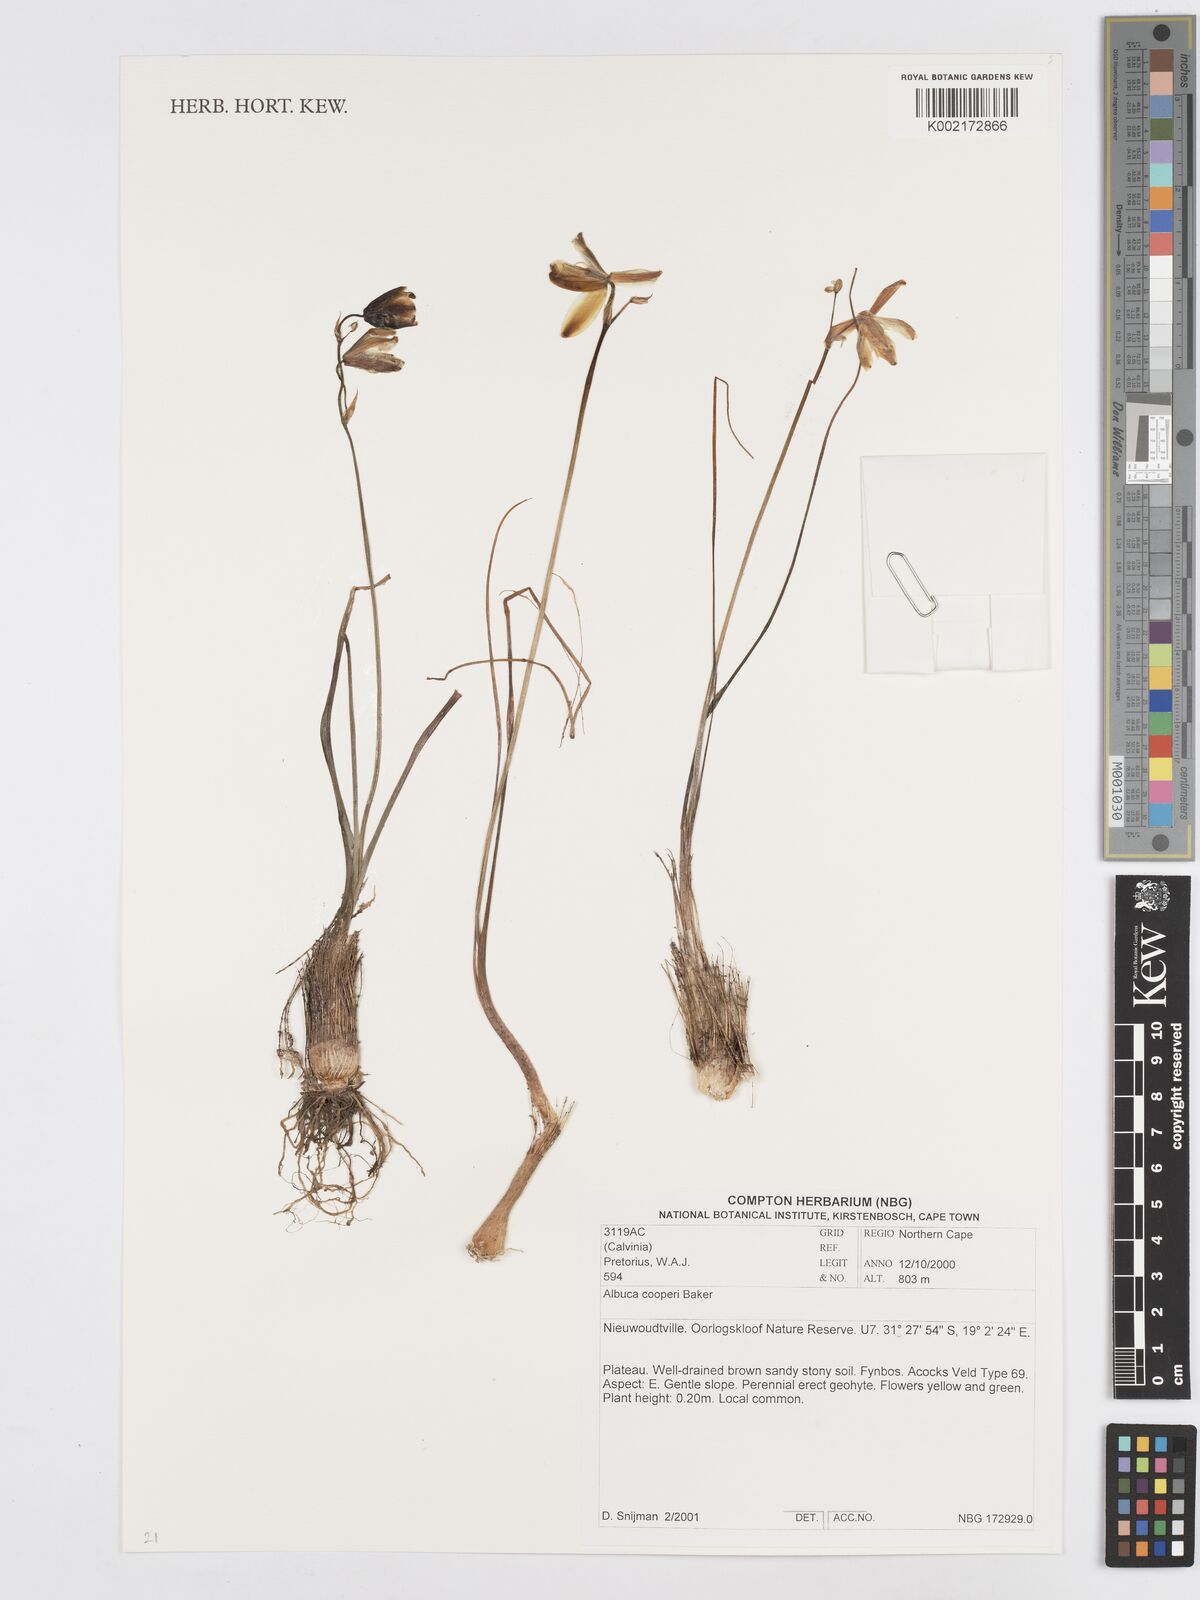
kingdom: Plantae
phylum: Tracheophyta
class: Liliopsida
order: Asparagales
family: Asparagaceae
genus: Albuca
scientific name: Albuca cooperi
